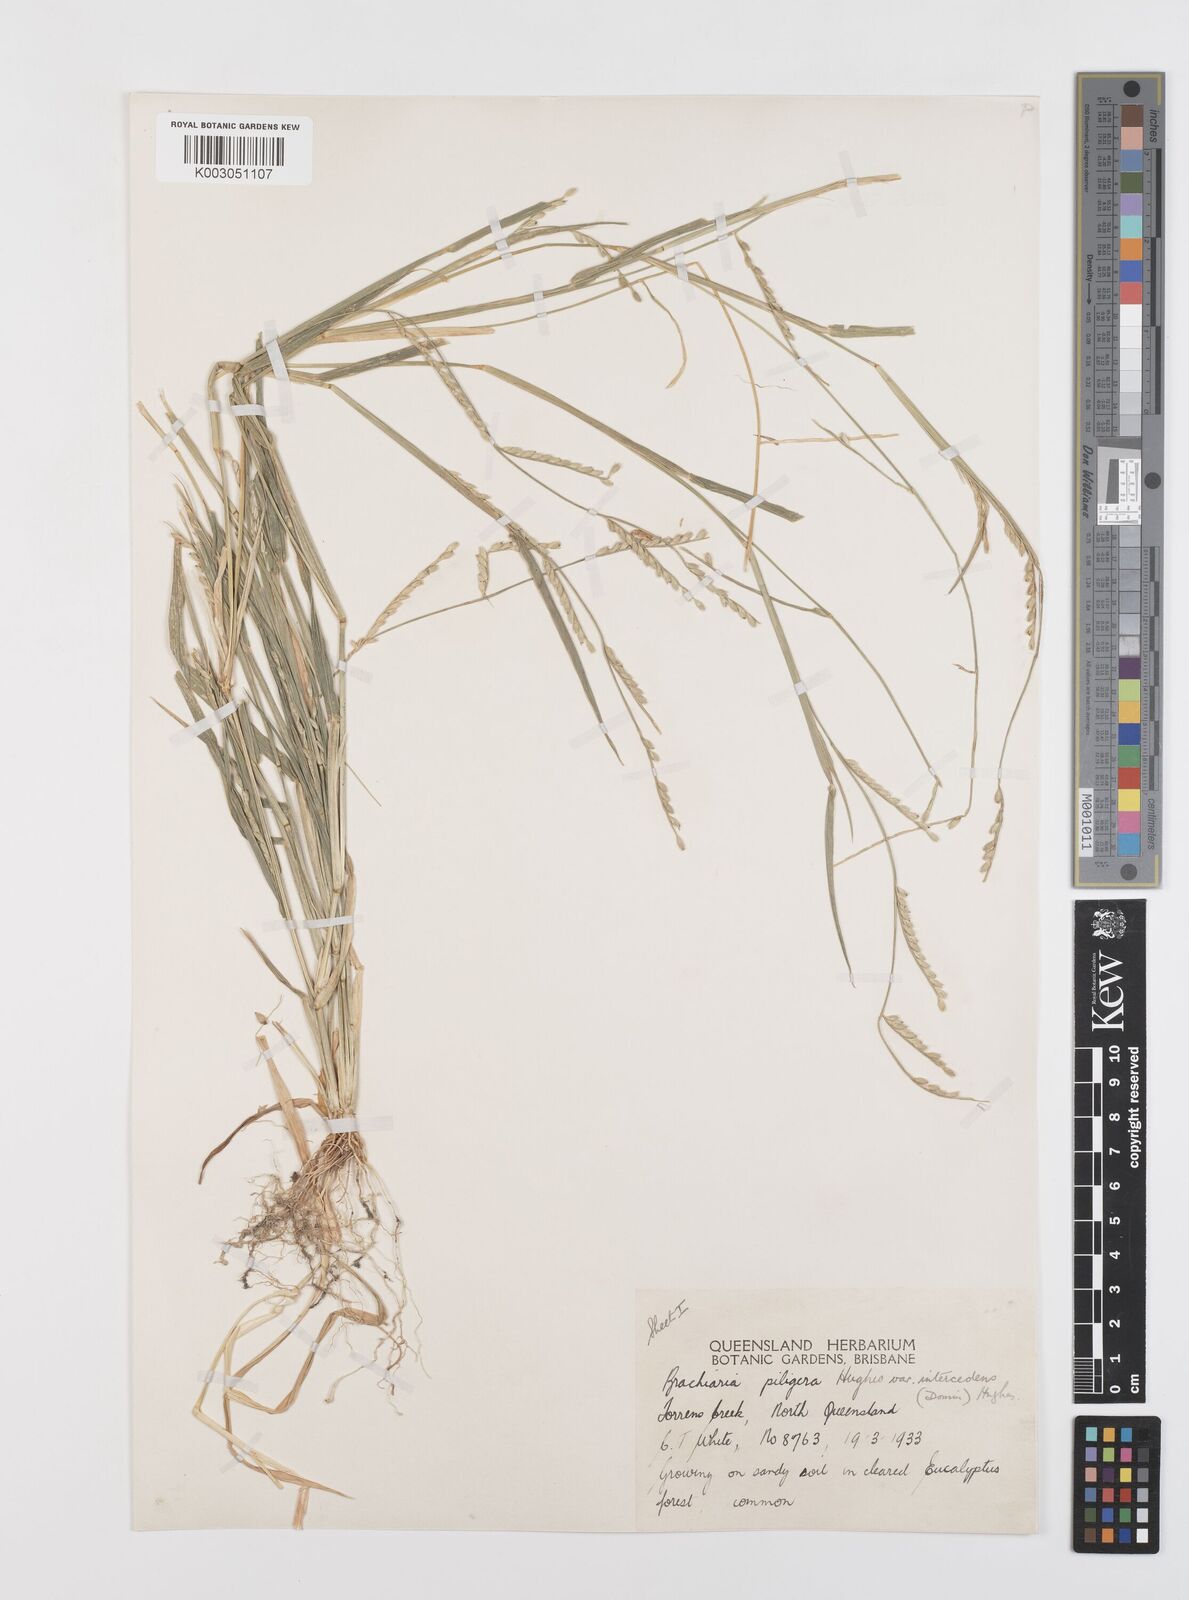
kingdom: Plantae
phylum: Tracheophyta
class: Liliopsida
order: Poales
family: Poaceae
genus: Urochloa
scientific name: Urochloa piligera
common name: Wattle signalgrass
